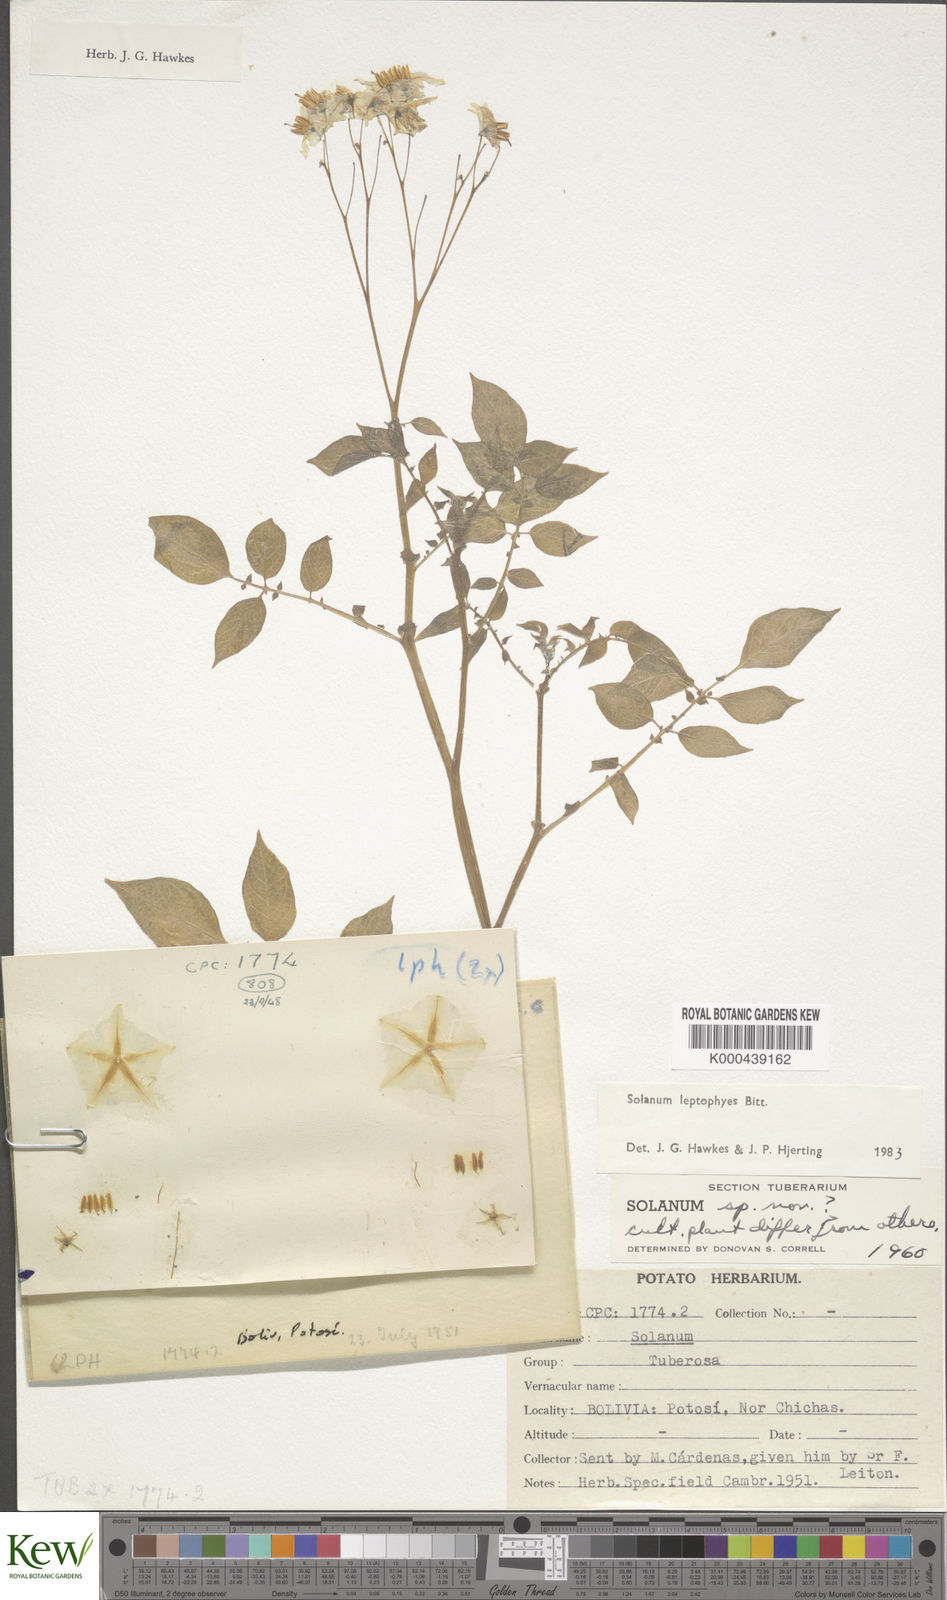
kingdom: Plantae
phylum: Tracheophyta
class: Magnoliopsida
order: Solanales
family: Solanaceae
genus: Solanum
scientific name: Solanum brevicaule
